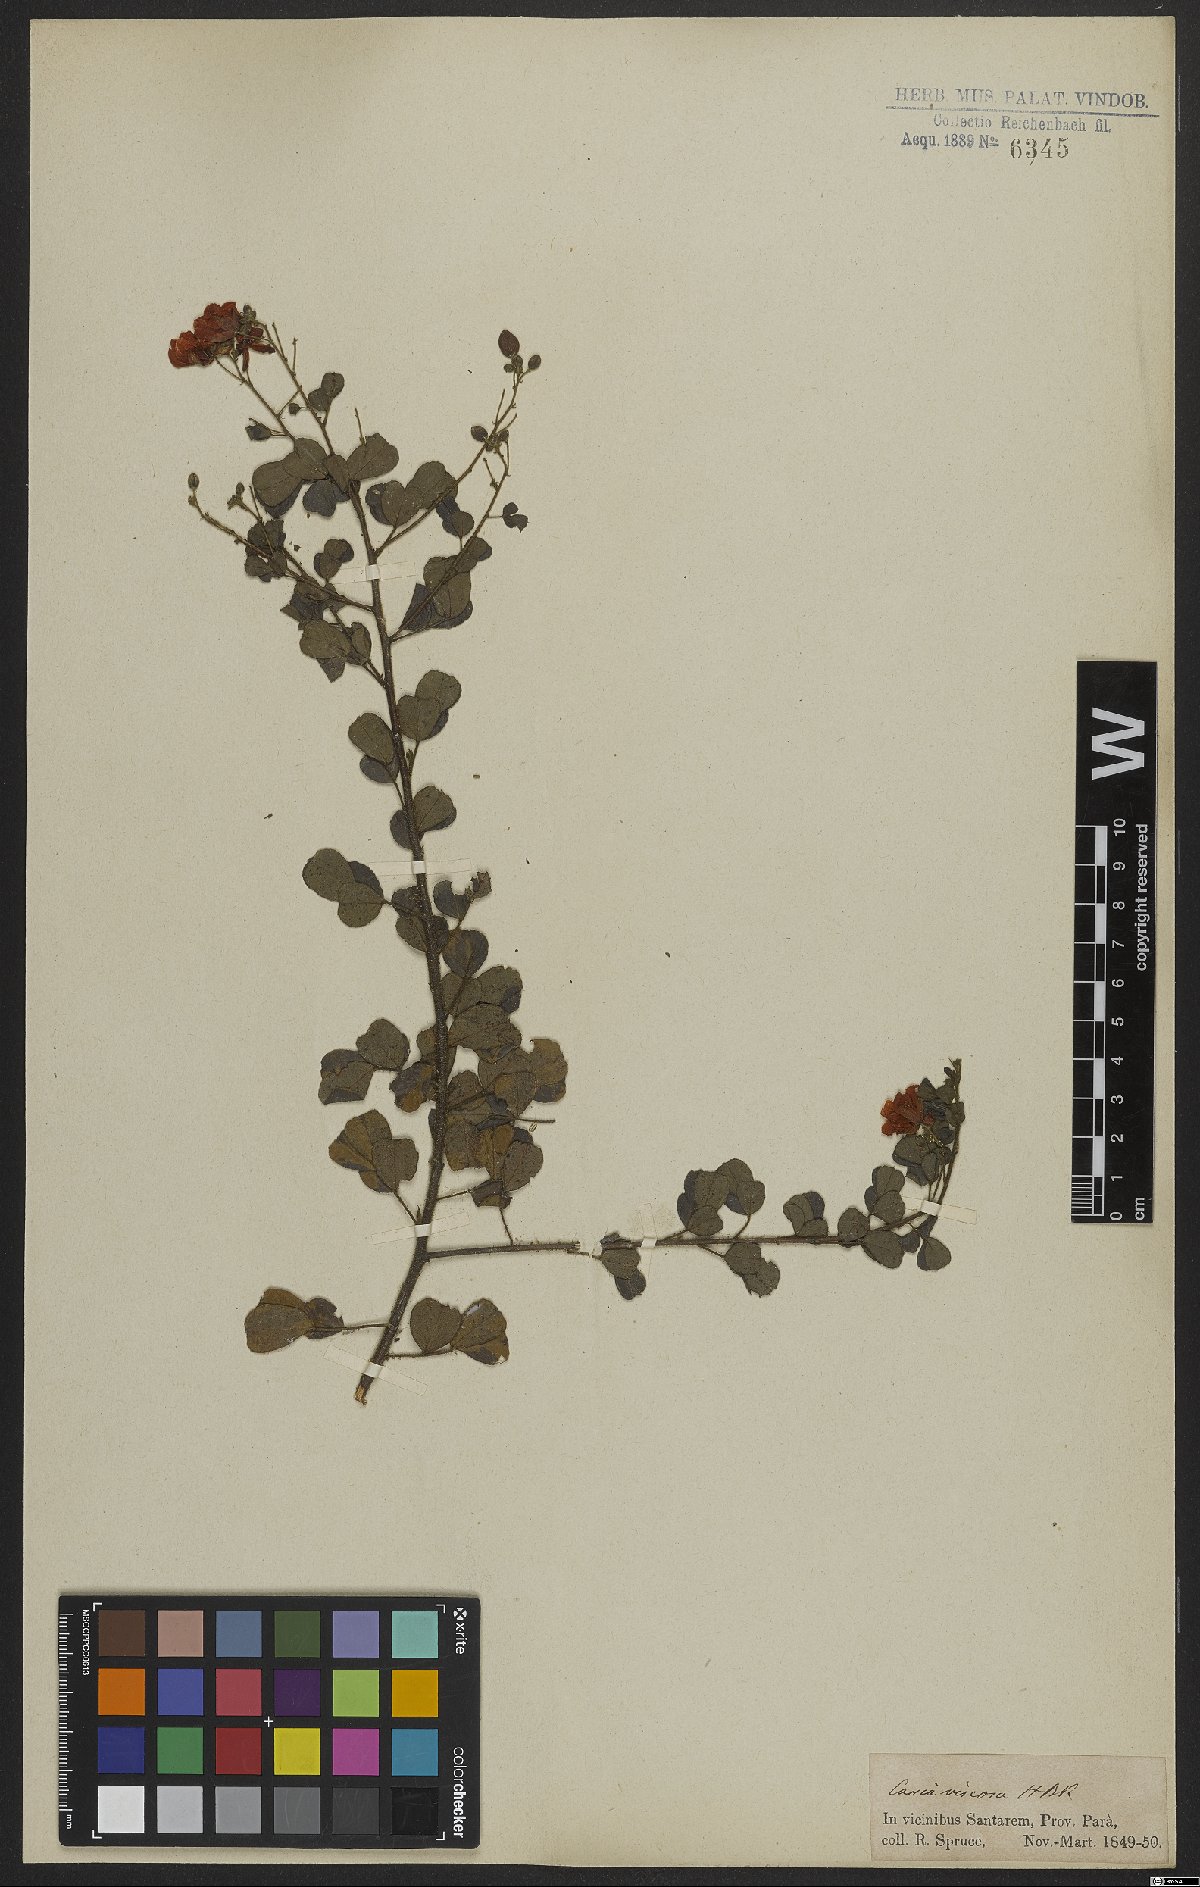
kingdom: Plantae
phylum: Tracheophyta
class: Magnoliopsida
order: Fabales
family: Fabaceae
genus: Chamaecrista
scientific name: Chamaecrista viscosa
